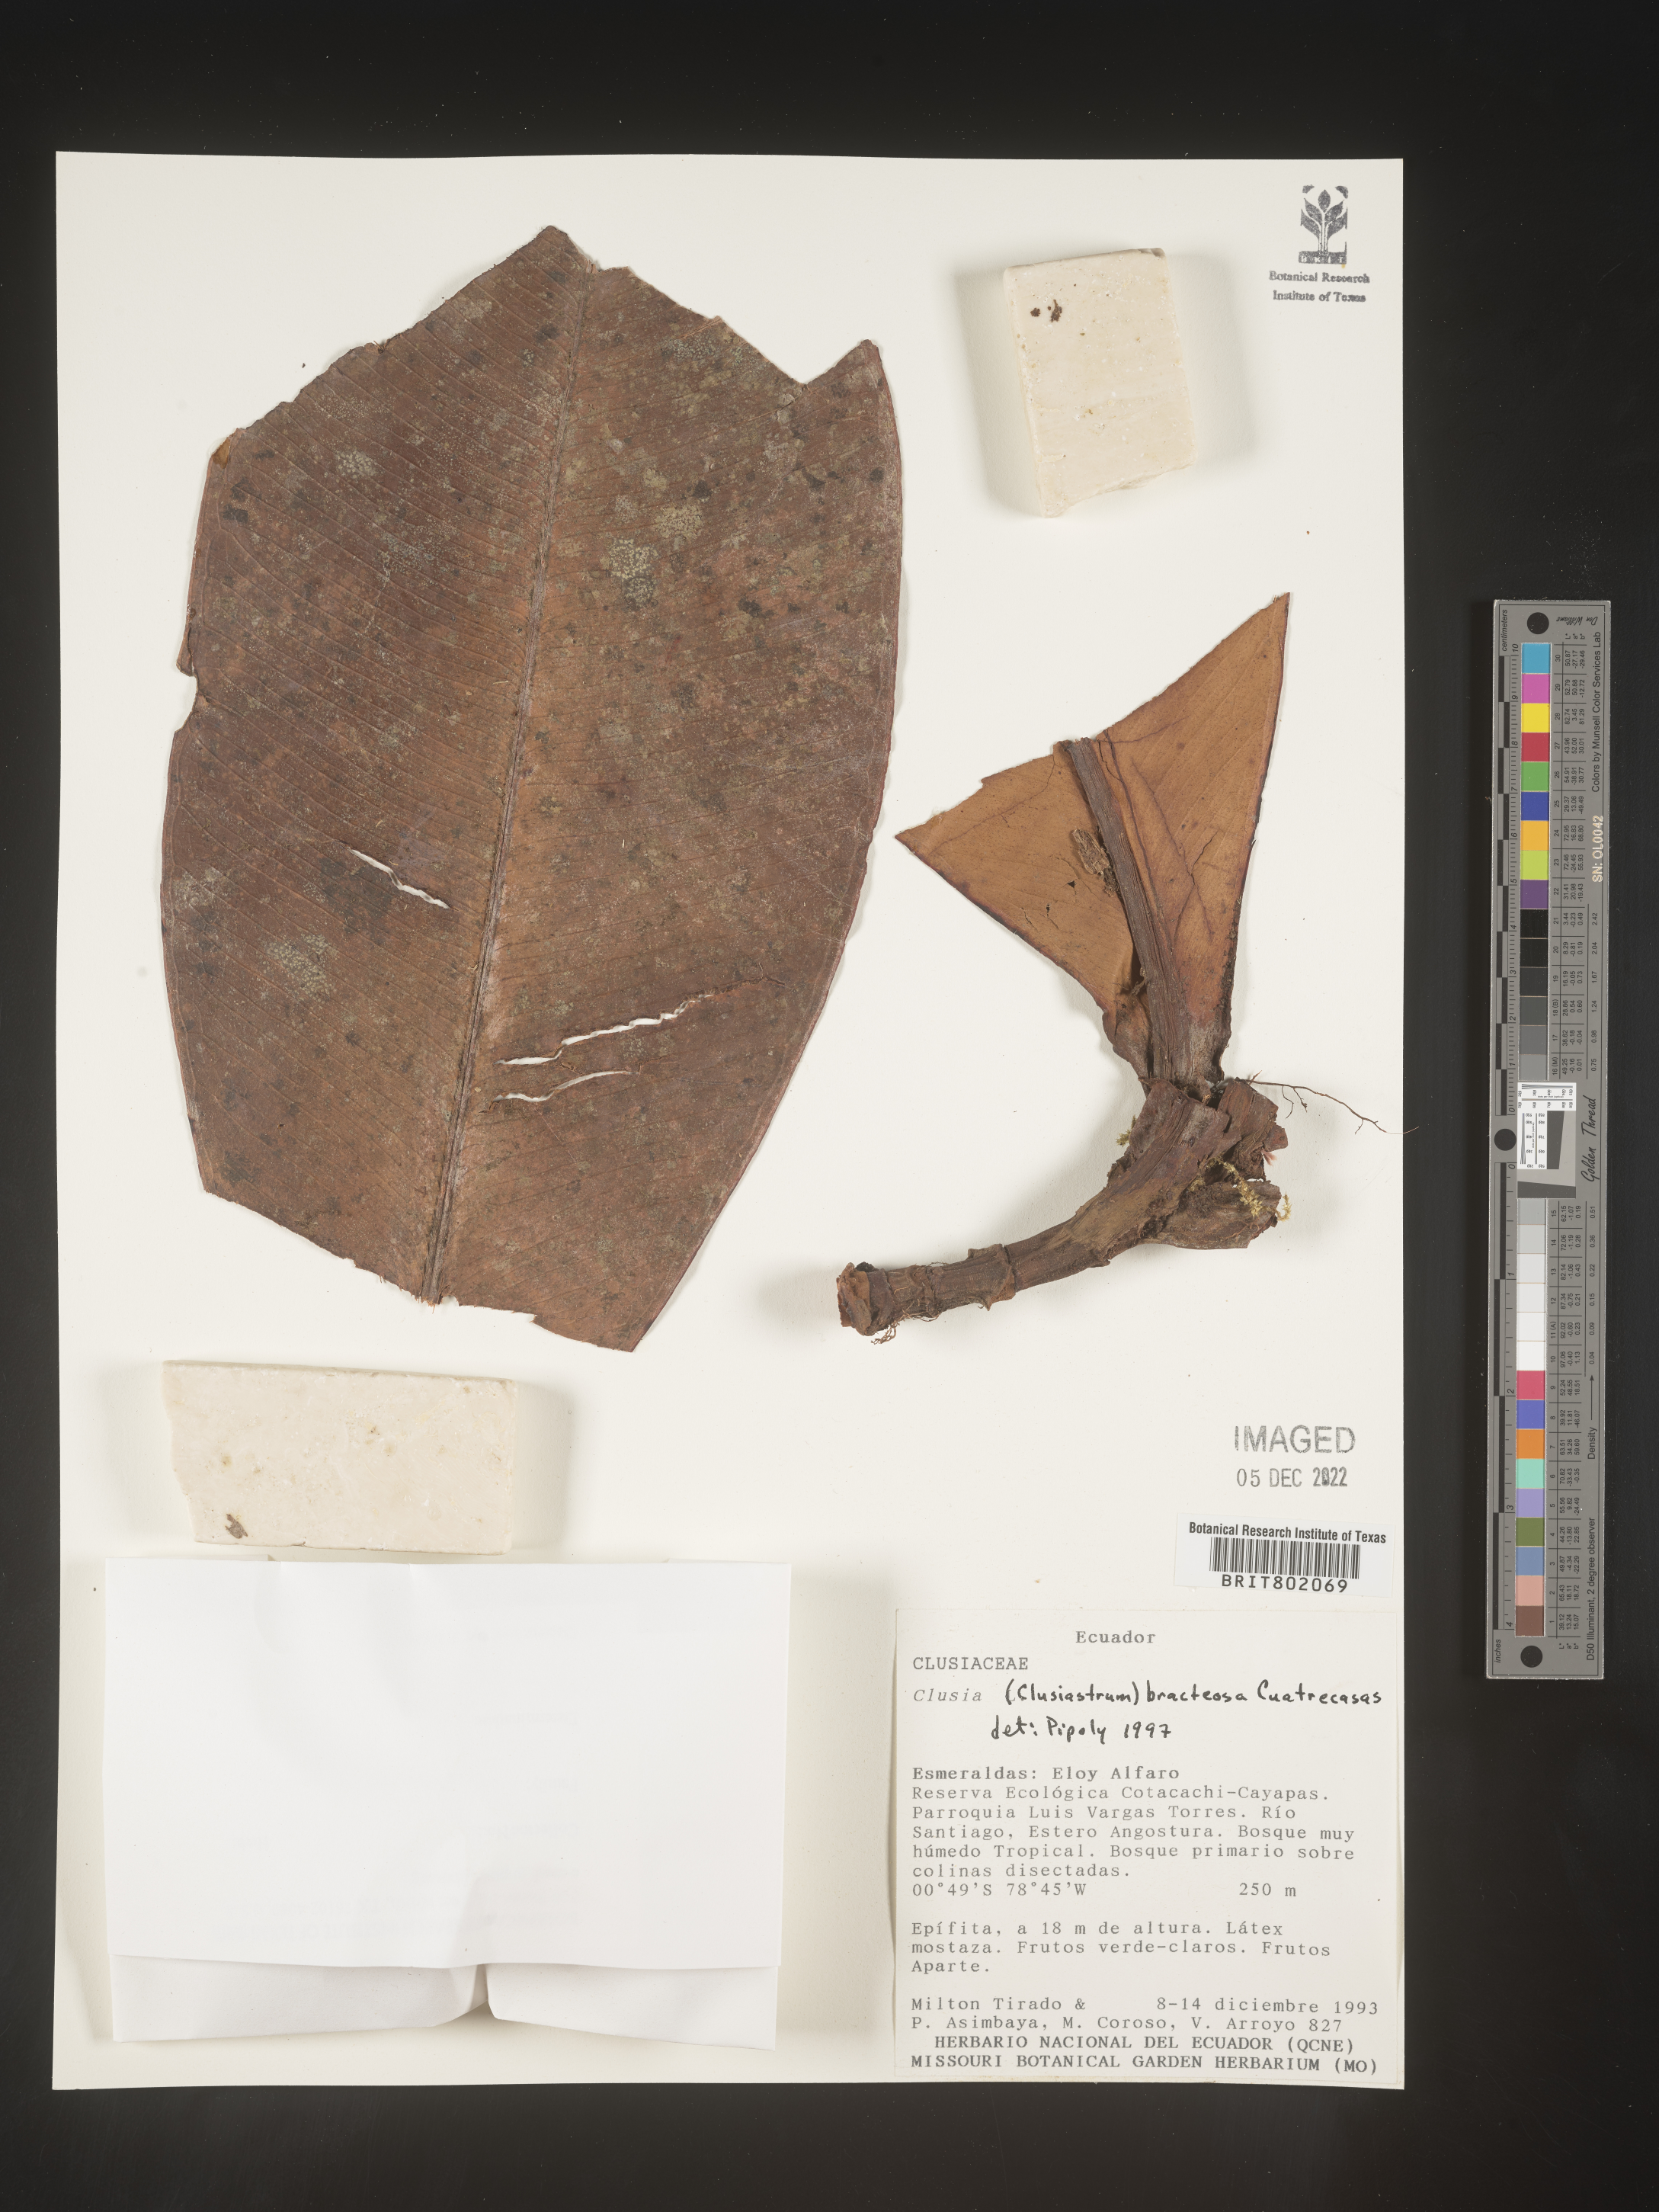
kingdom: Plantae
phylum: Tracheophyta
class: Magnoliopsida
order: Malpighiales
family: Clusiaceae
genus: Clusia
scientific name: Clusia
